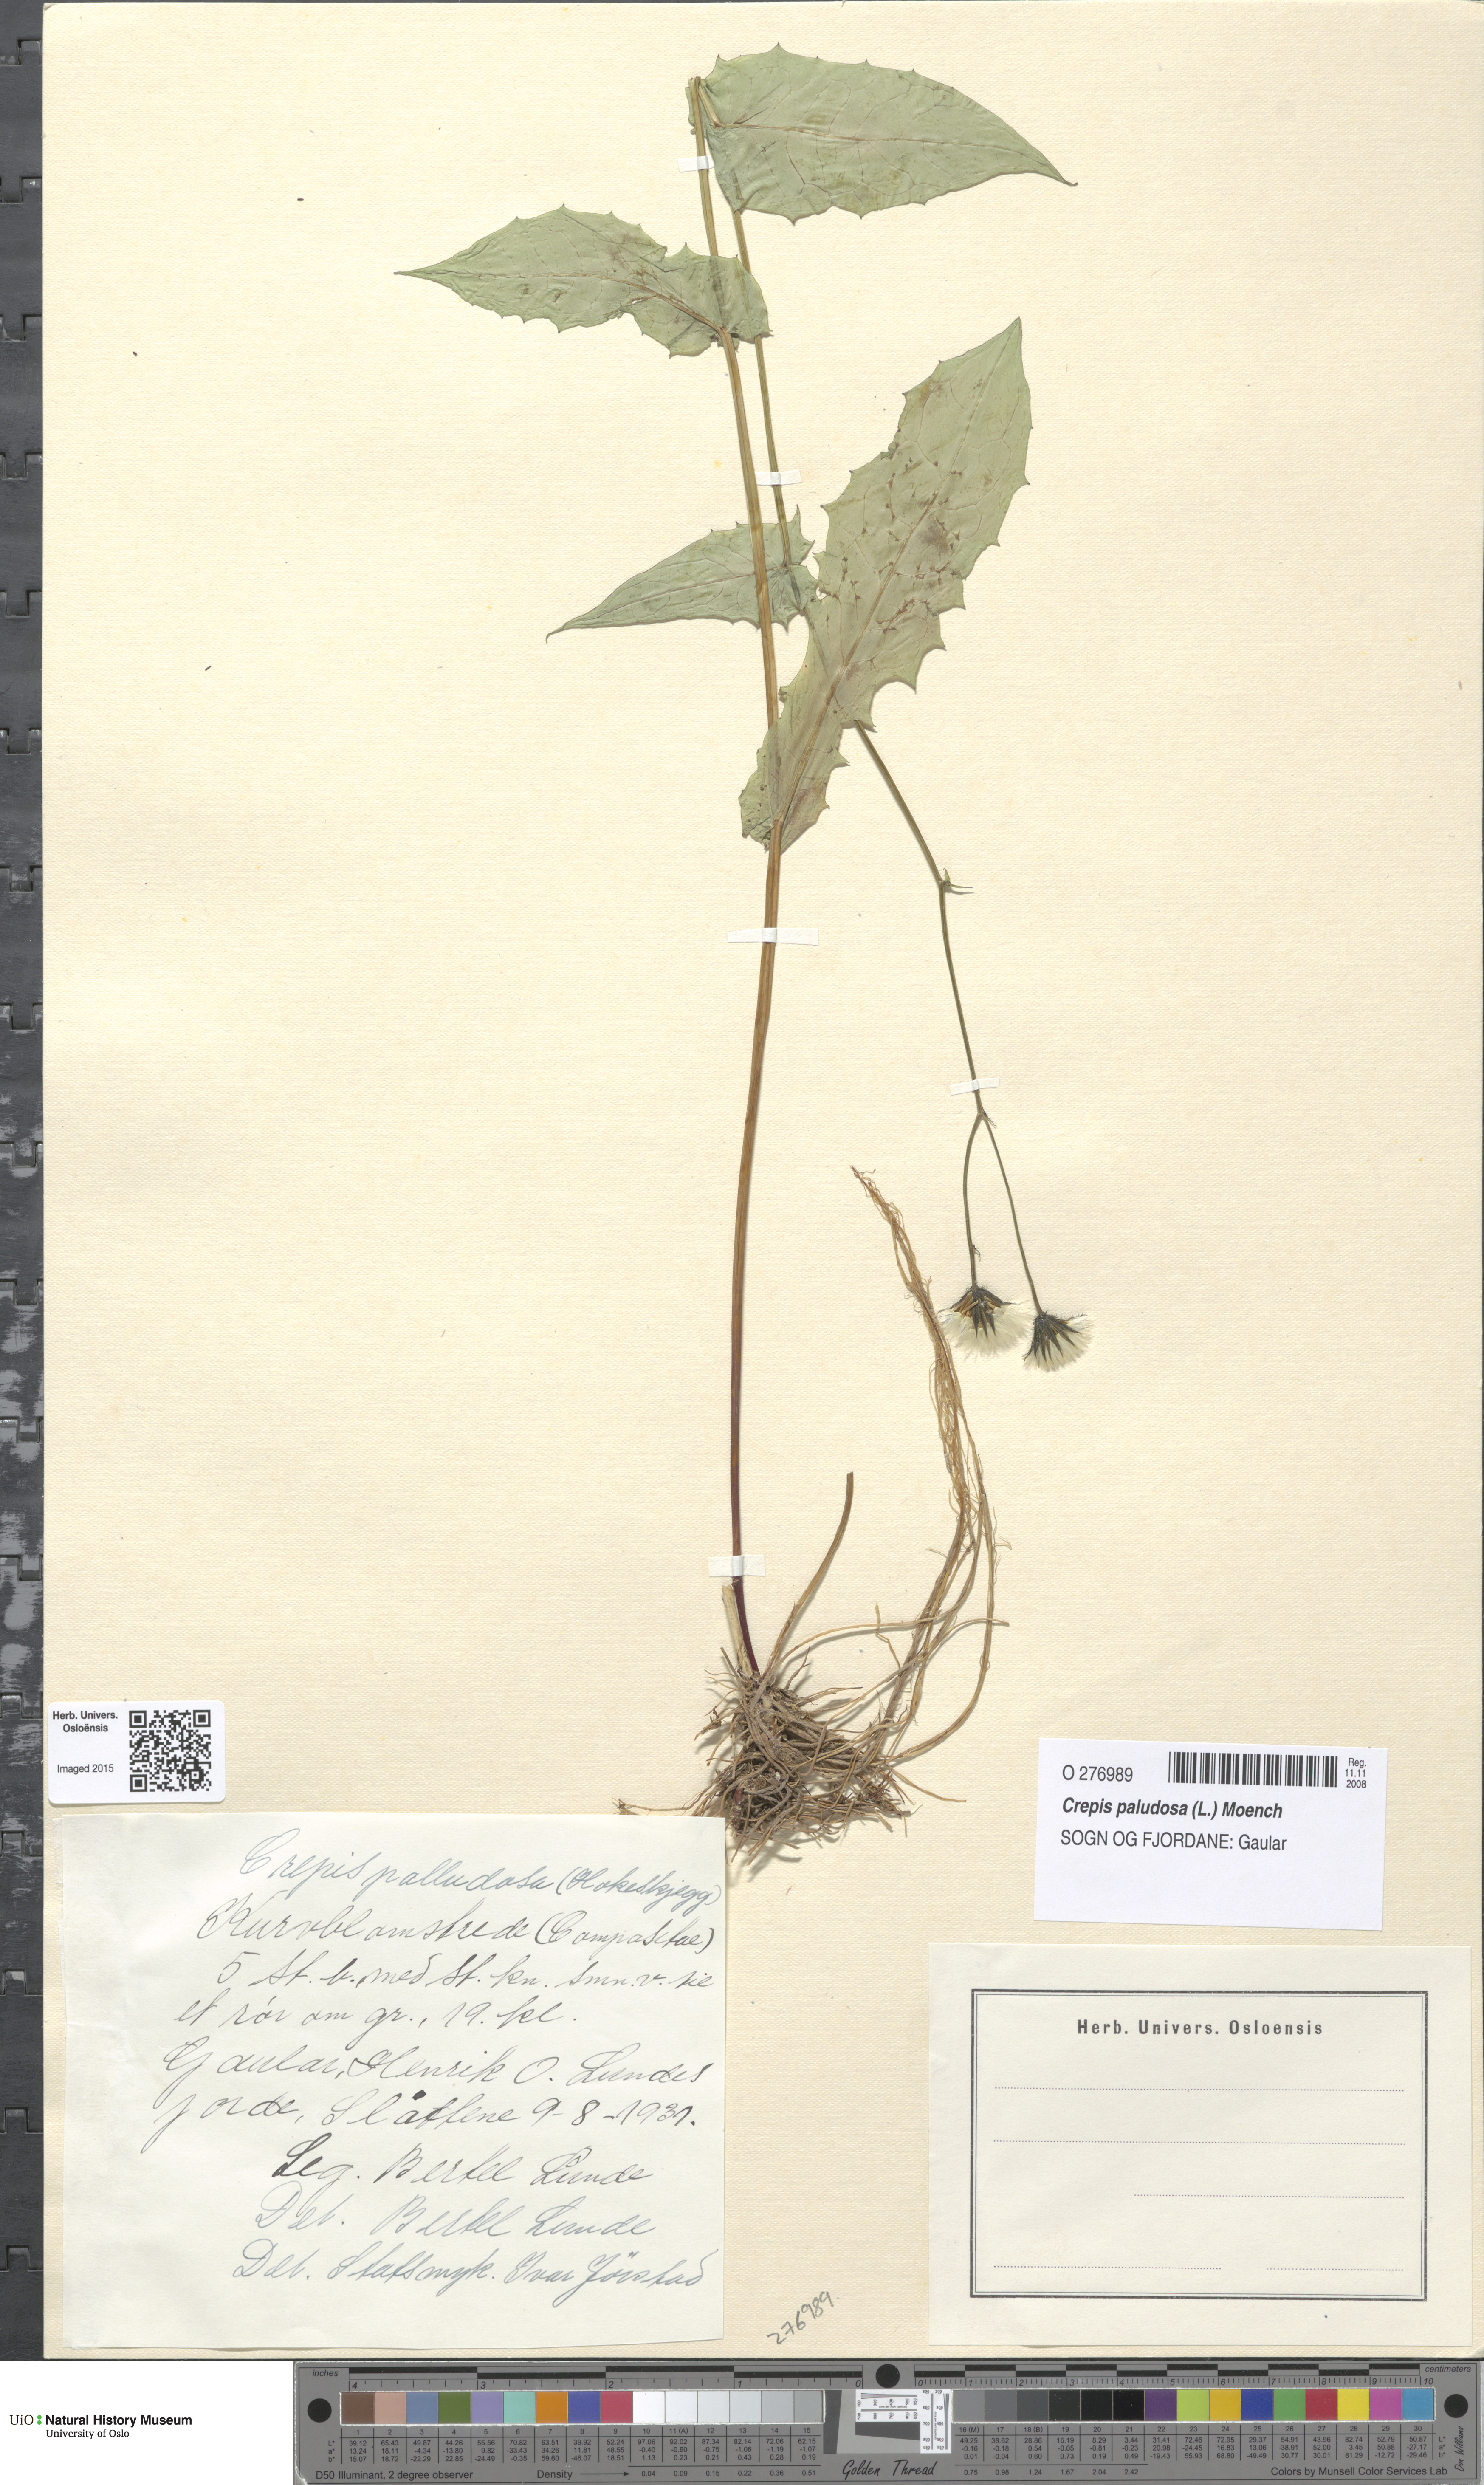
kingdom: Plantae
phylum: Tracheophyta
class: Magnoliopsida
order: Asterales
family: Asteraceae
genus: Crepis
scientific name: Crepis paludosa
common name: Marsh hawk's-beard
